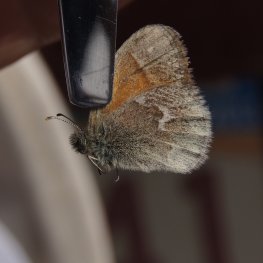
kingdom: Animalia
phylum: Arthropoda
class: Insecta
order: Lepidoptera
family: Nymphalidae
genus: Coenonympha
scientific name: Coenonympha tullia
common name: Large Heath
